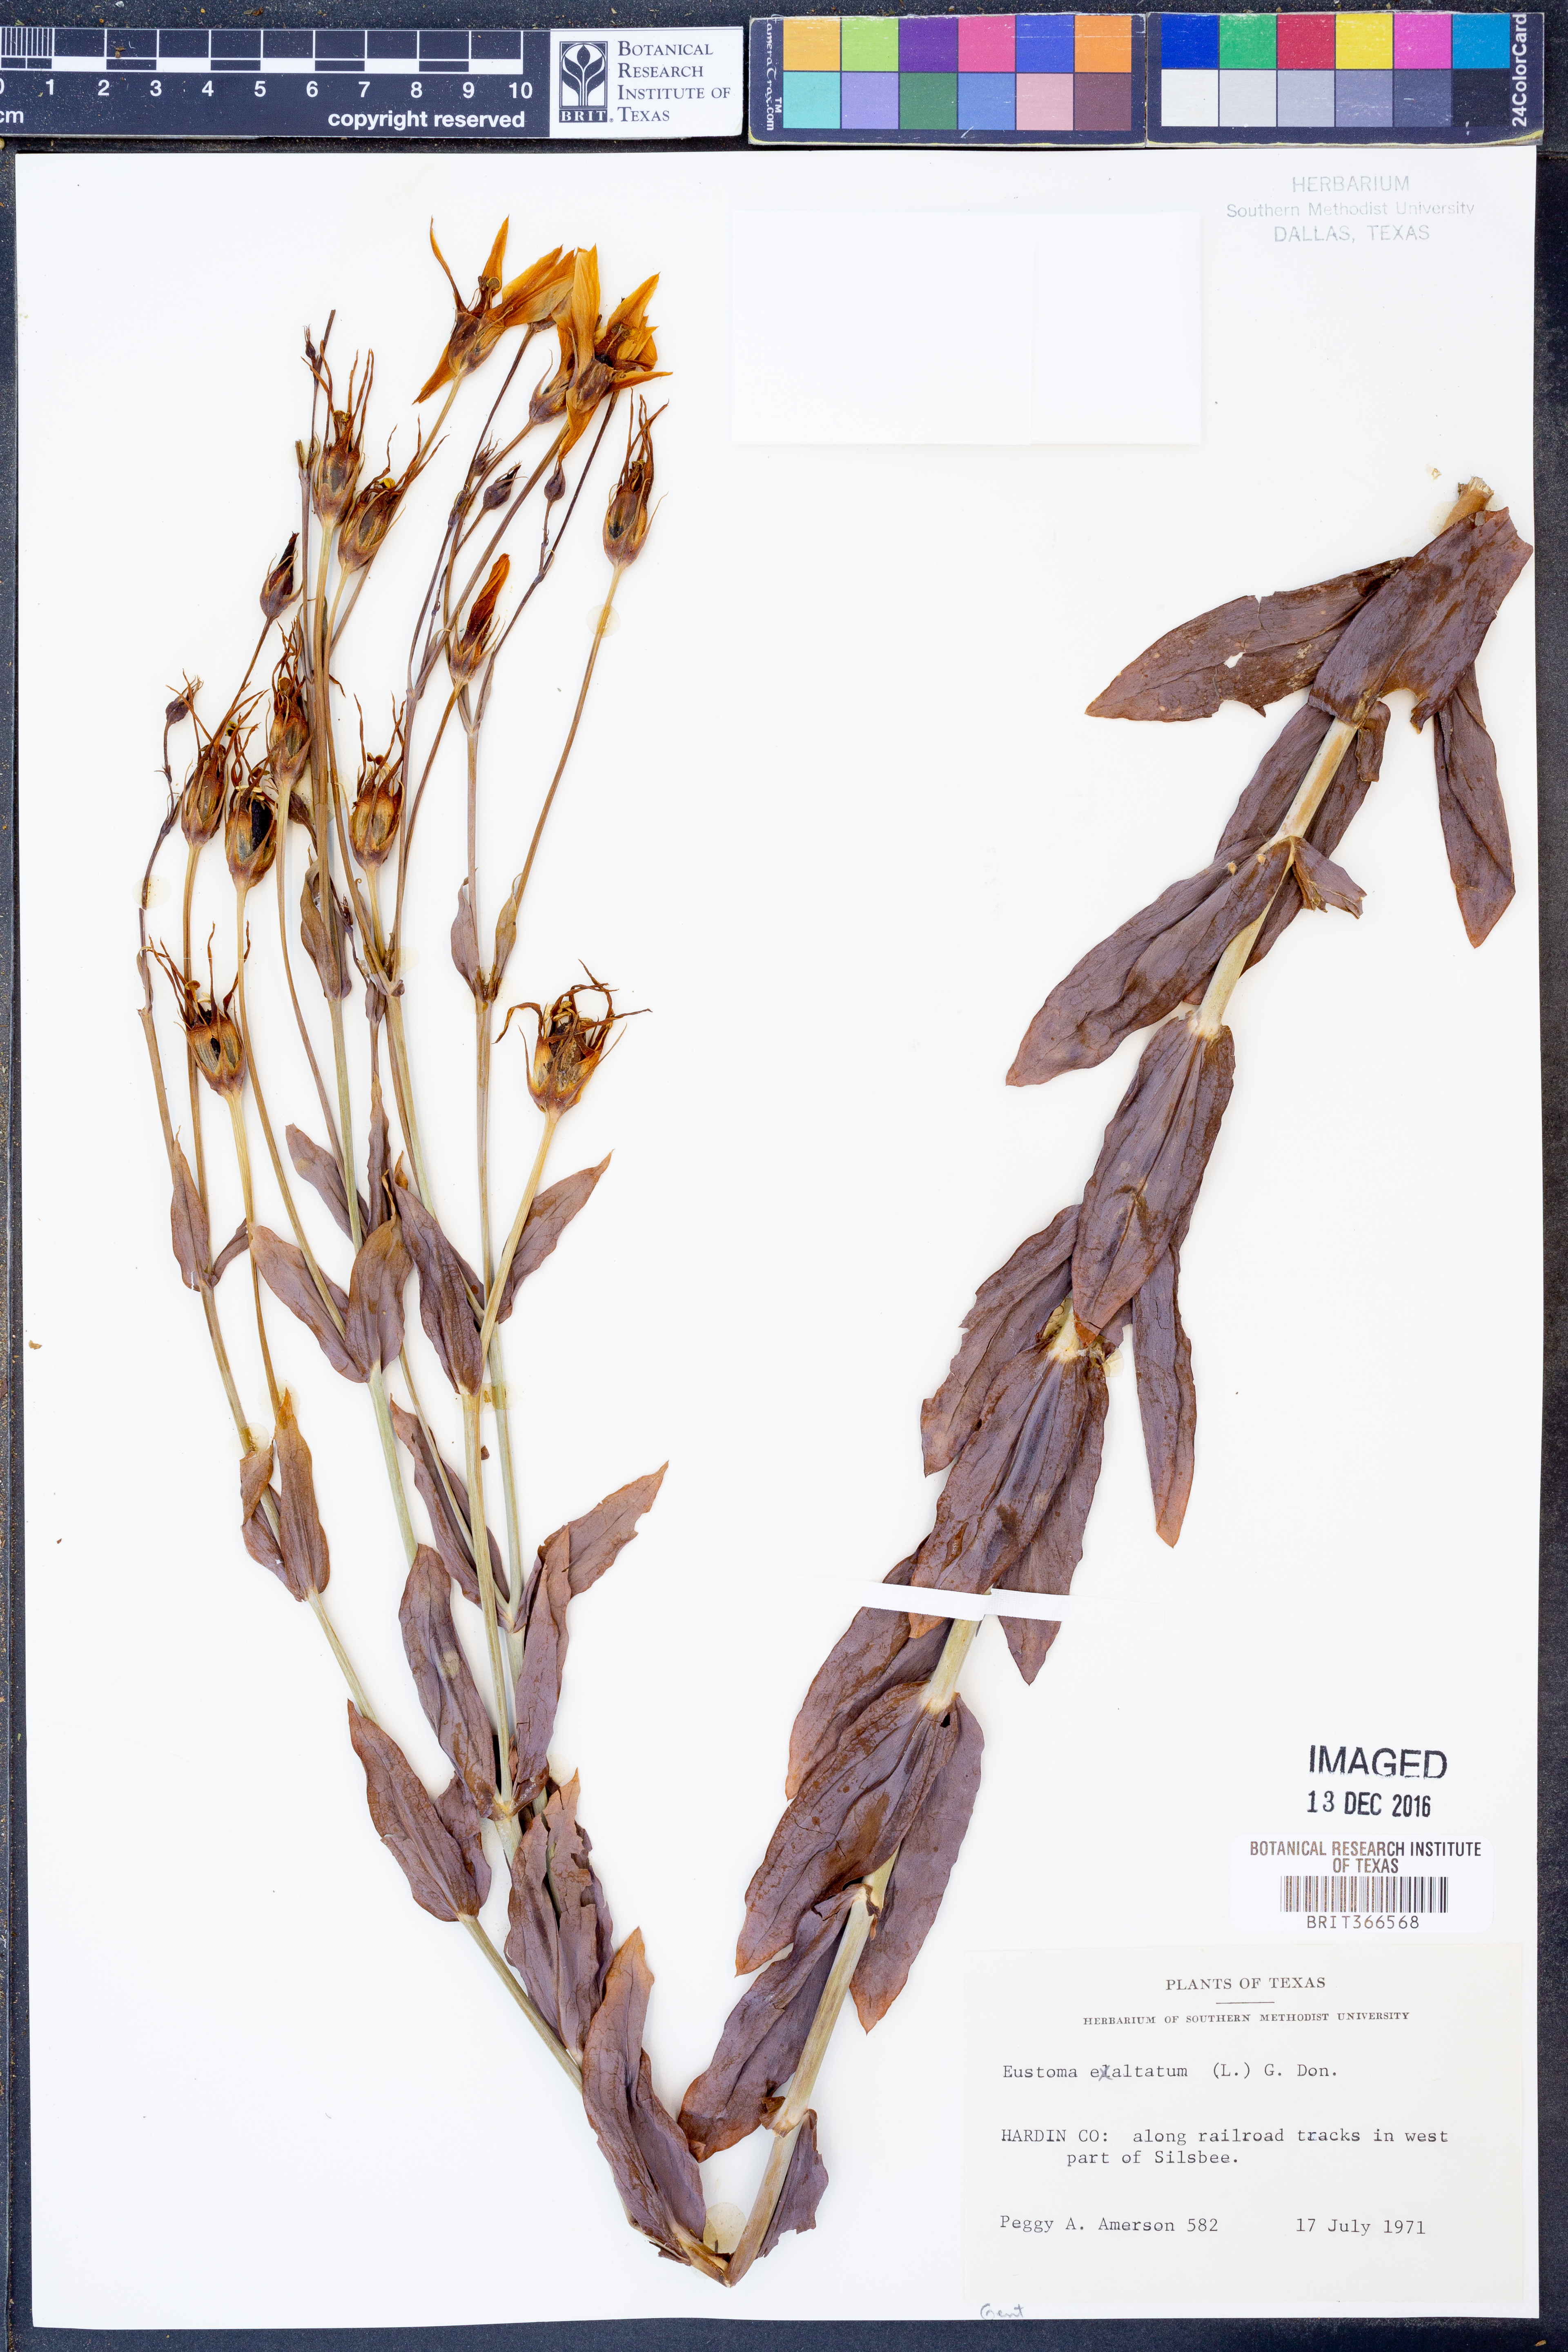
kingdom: Plantae
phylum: Tracheophyta
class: Magnoliopsida
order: Gentianales
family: Gentianaceae
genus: Eustoma
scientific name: Eustoma exaltatum
